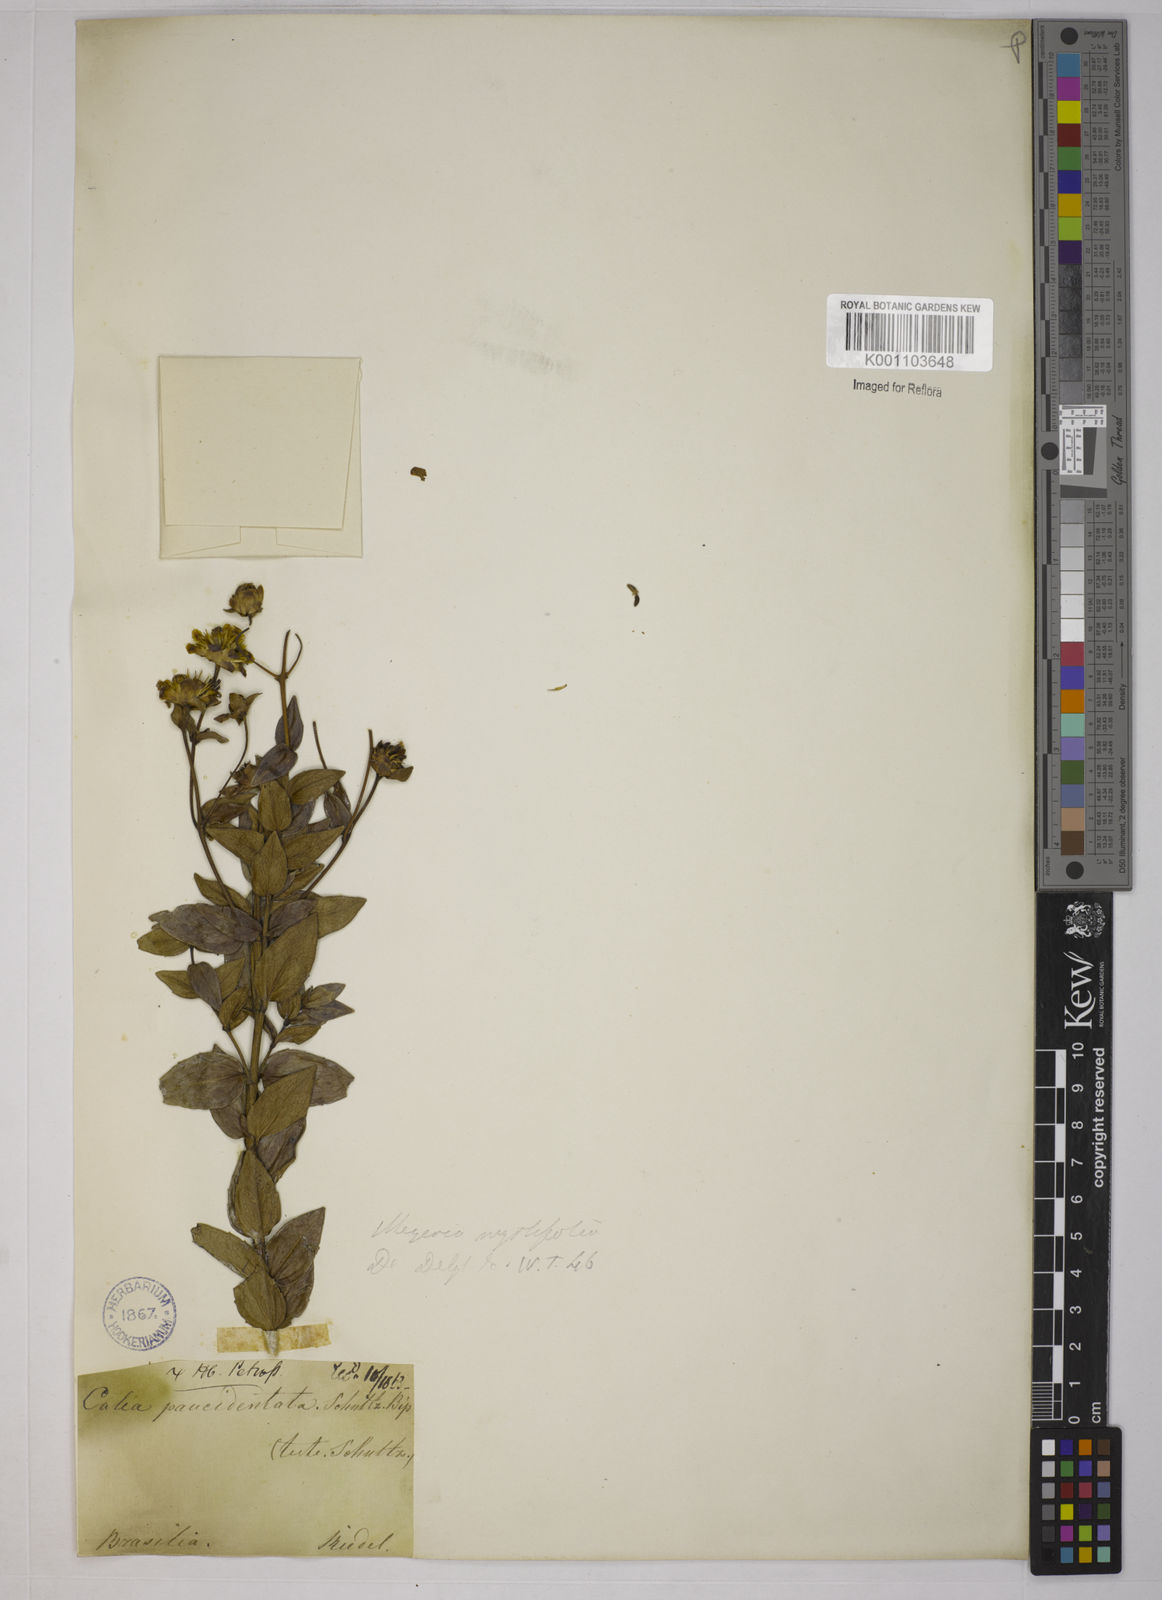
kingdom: Plantae
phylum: Tracheophyta
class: Magnoliopsida
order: Asterales
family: Asteraceae
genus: Calea
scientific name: Calea myrtifolia
